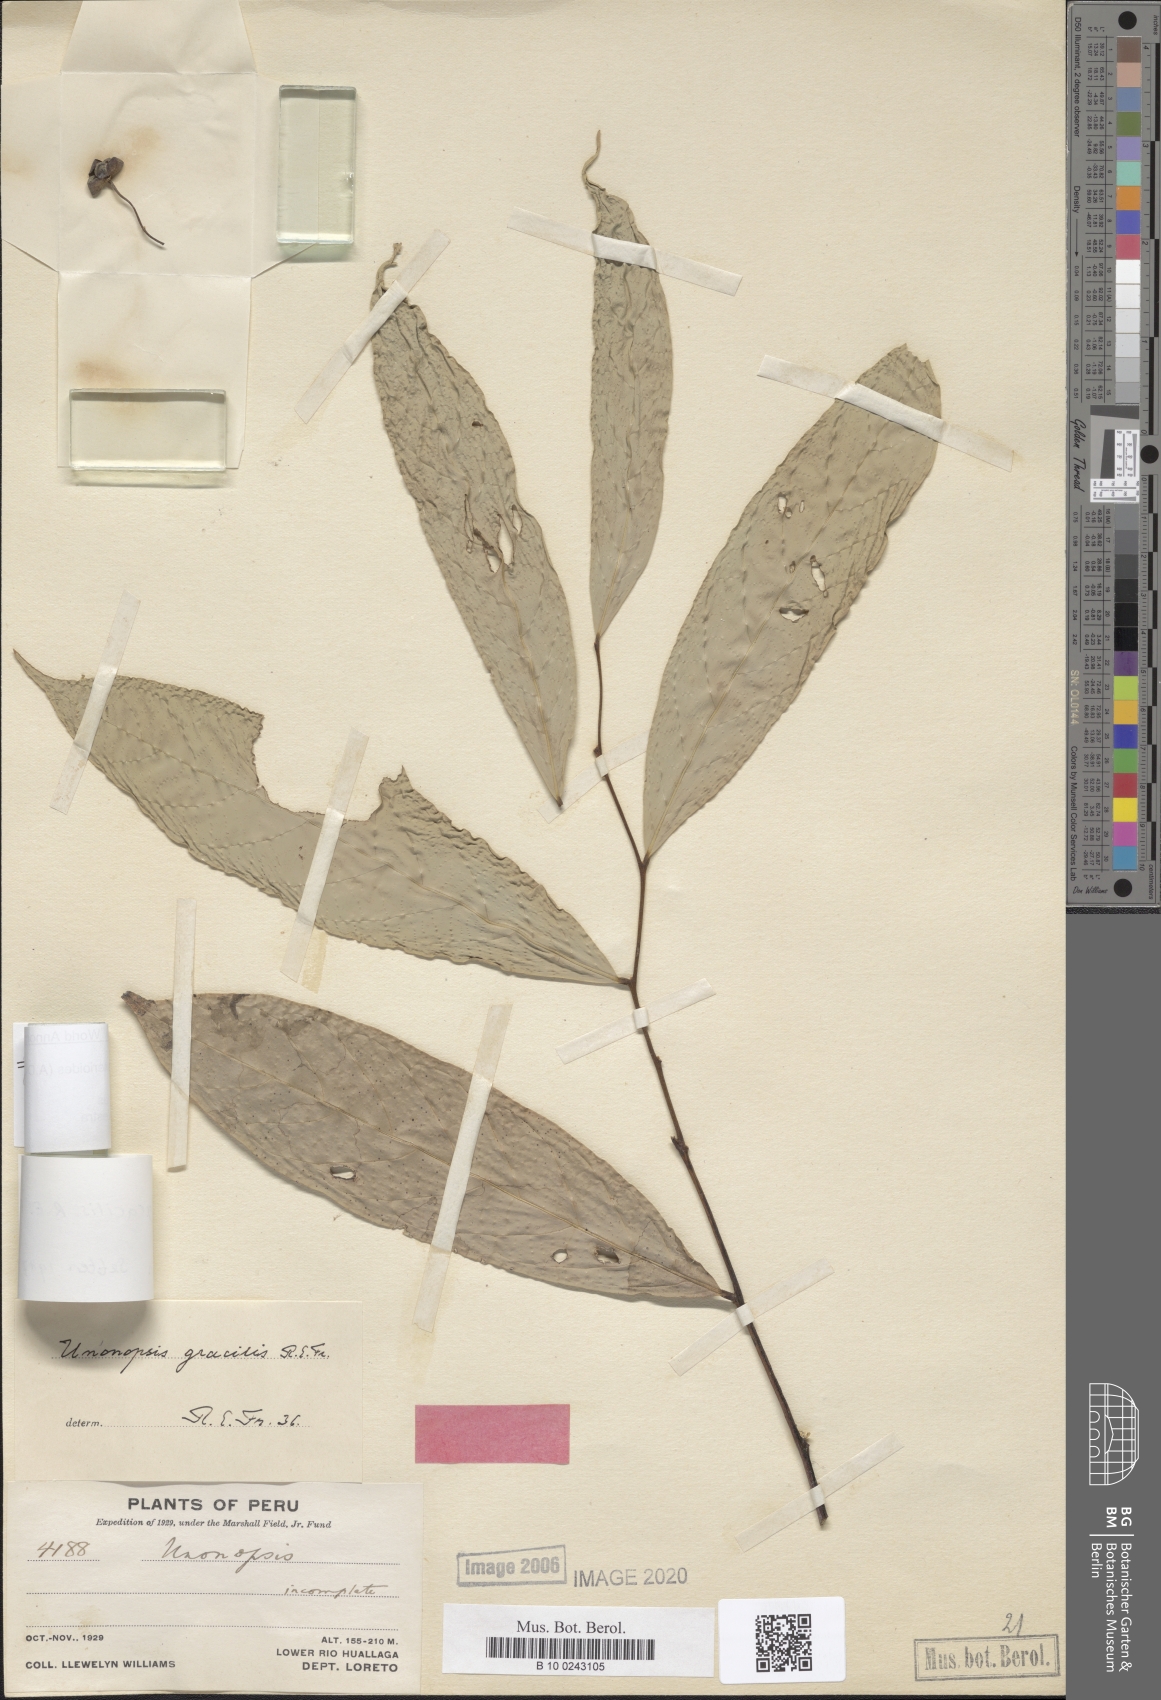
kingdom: Plantae
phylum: Tracheophyta
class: Magnoliopsida
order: Magnoliales
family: Annonaceae
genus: Unonopsis
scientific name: Unonopsis guatterioides
